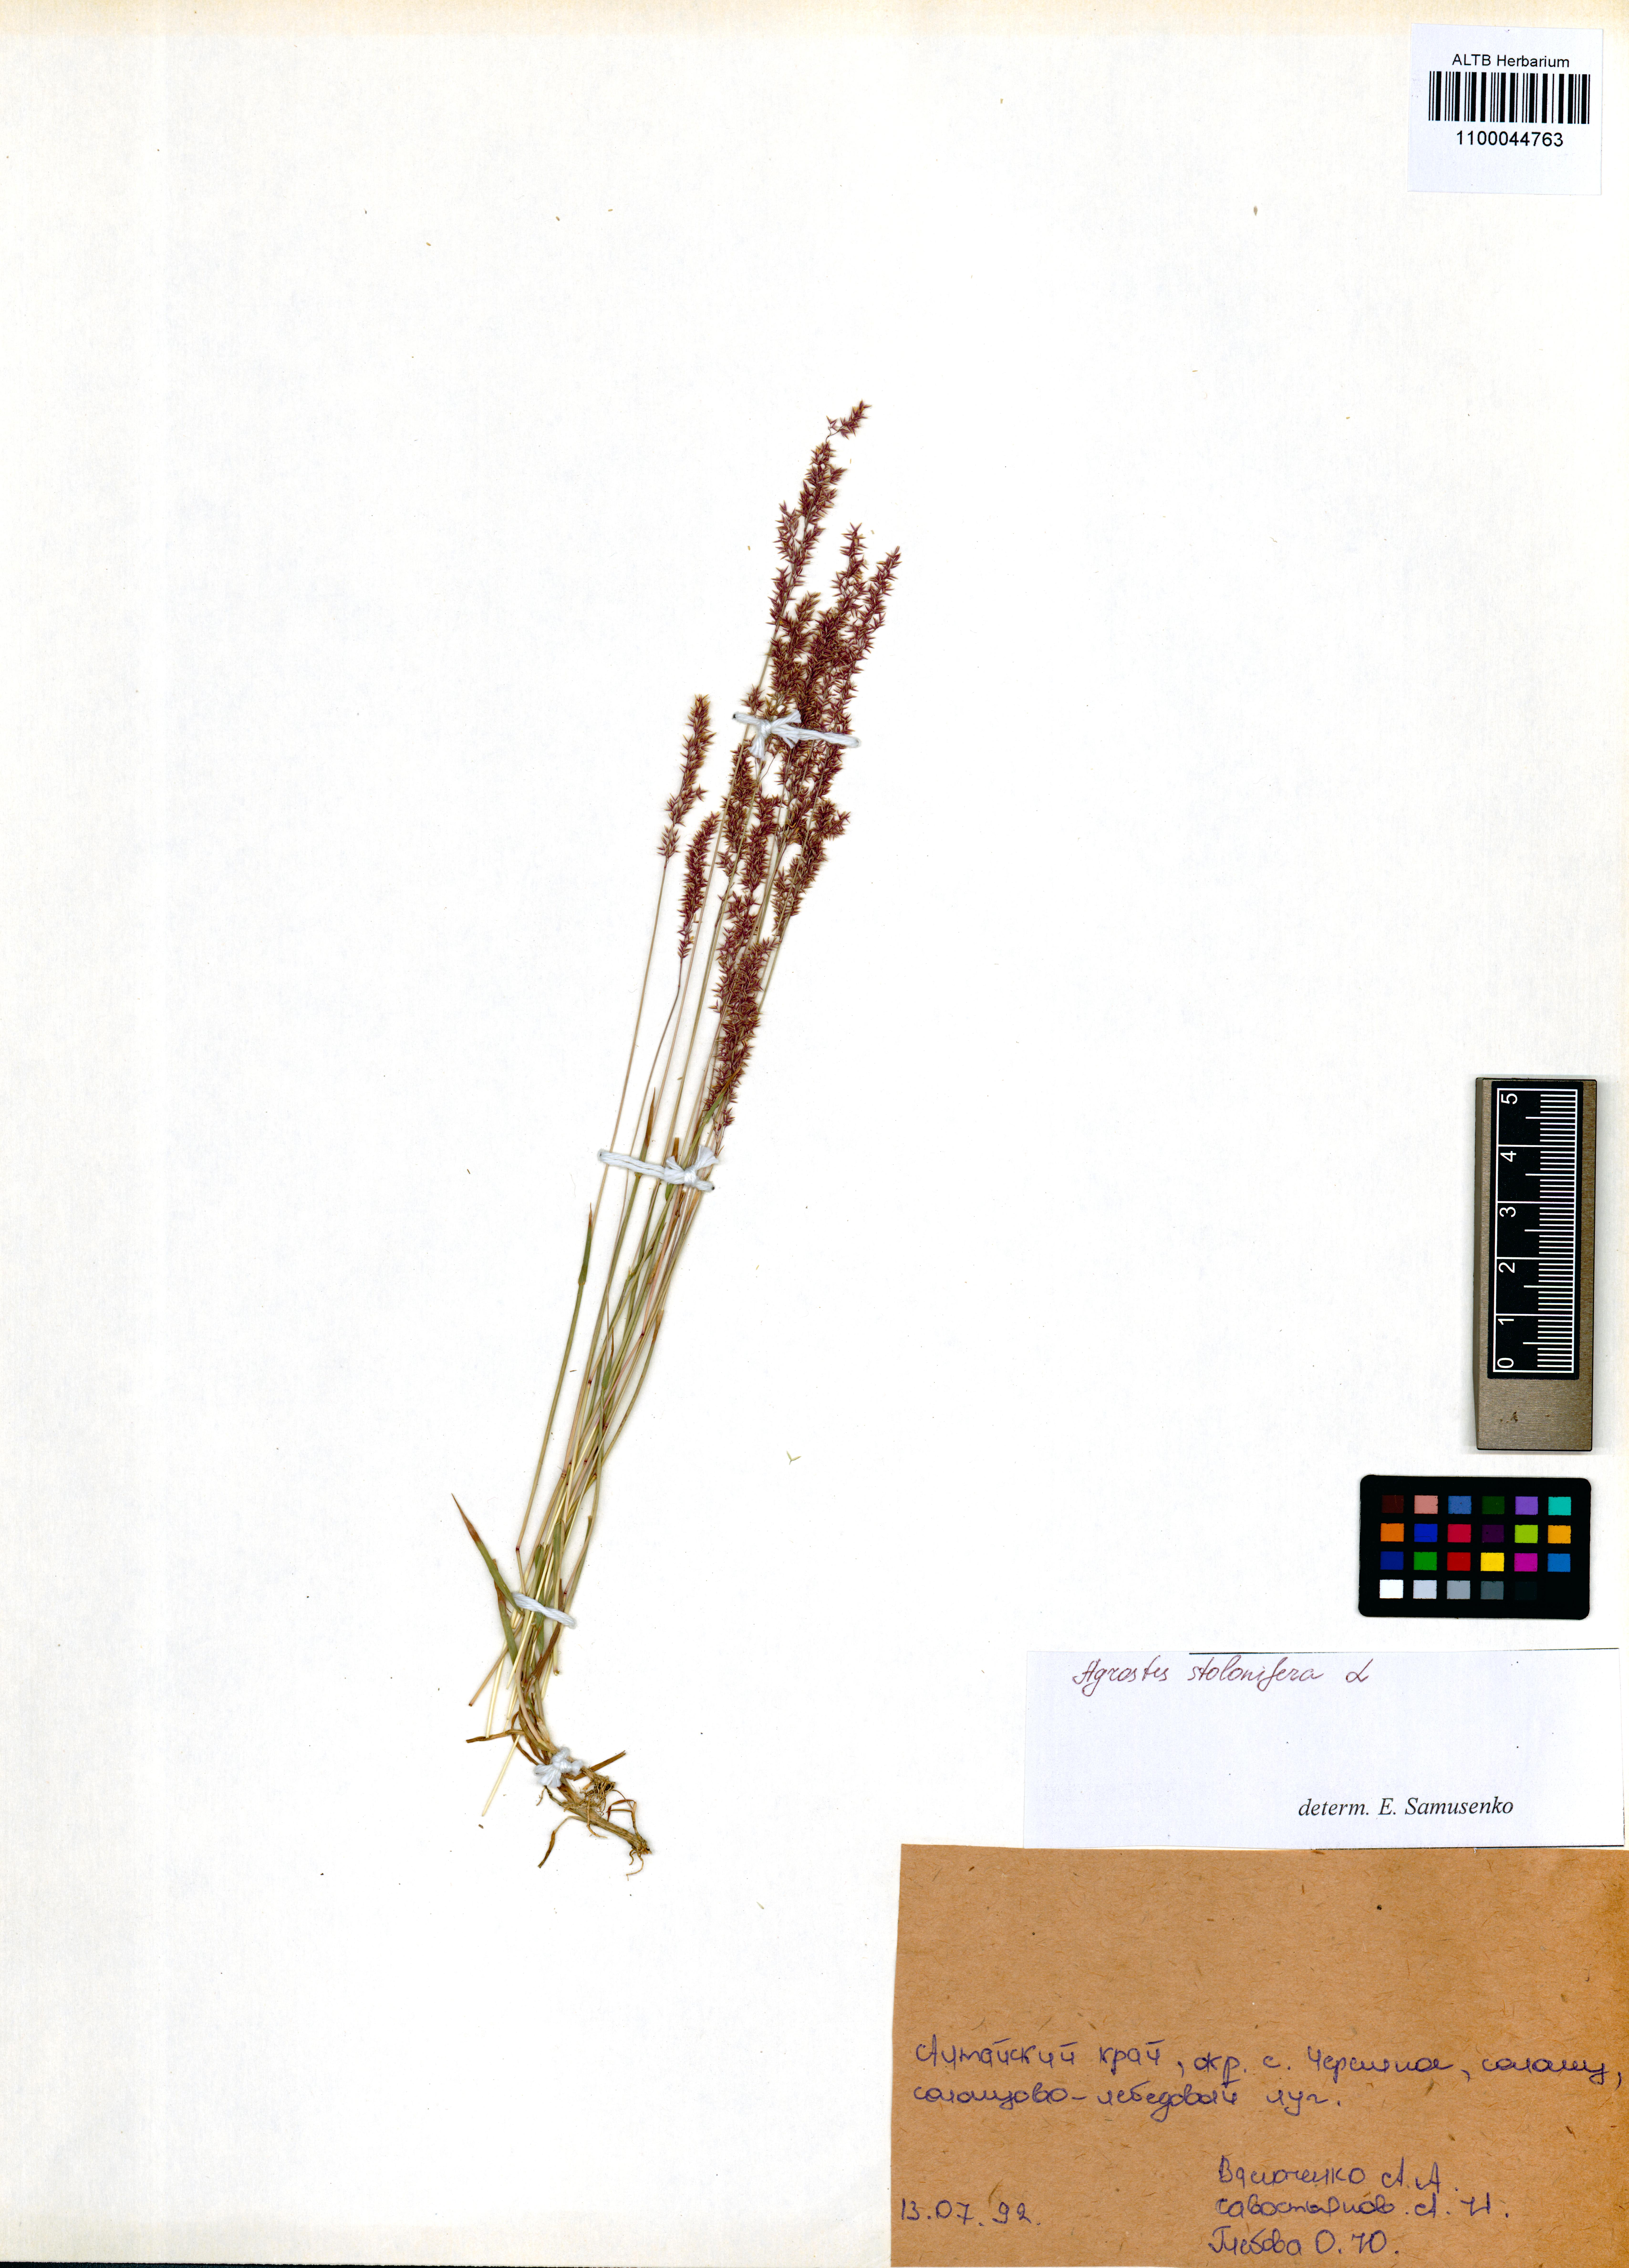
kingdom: Plantae
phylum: Tracheophyta
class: Liliopsida
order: Poales
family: Poaceae
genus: Agrostis
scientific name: Agrostis stolonifera
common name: Creeping bentgrass
